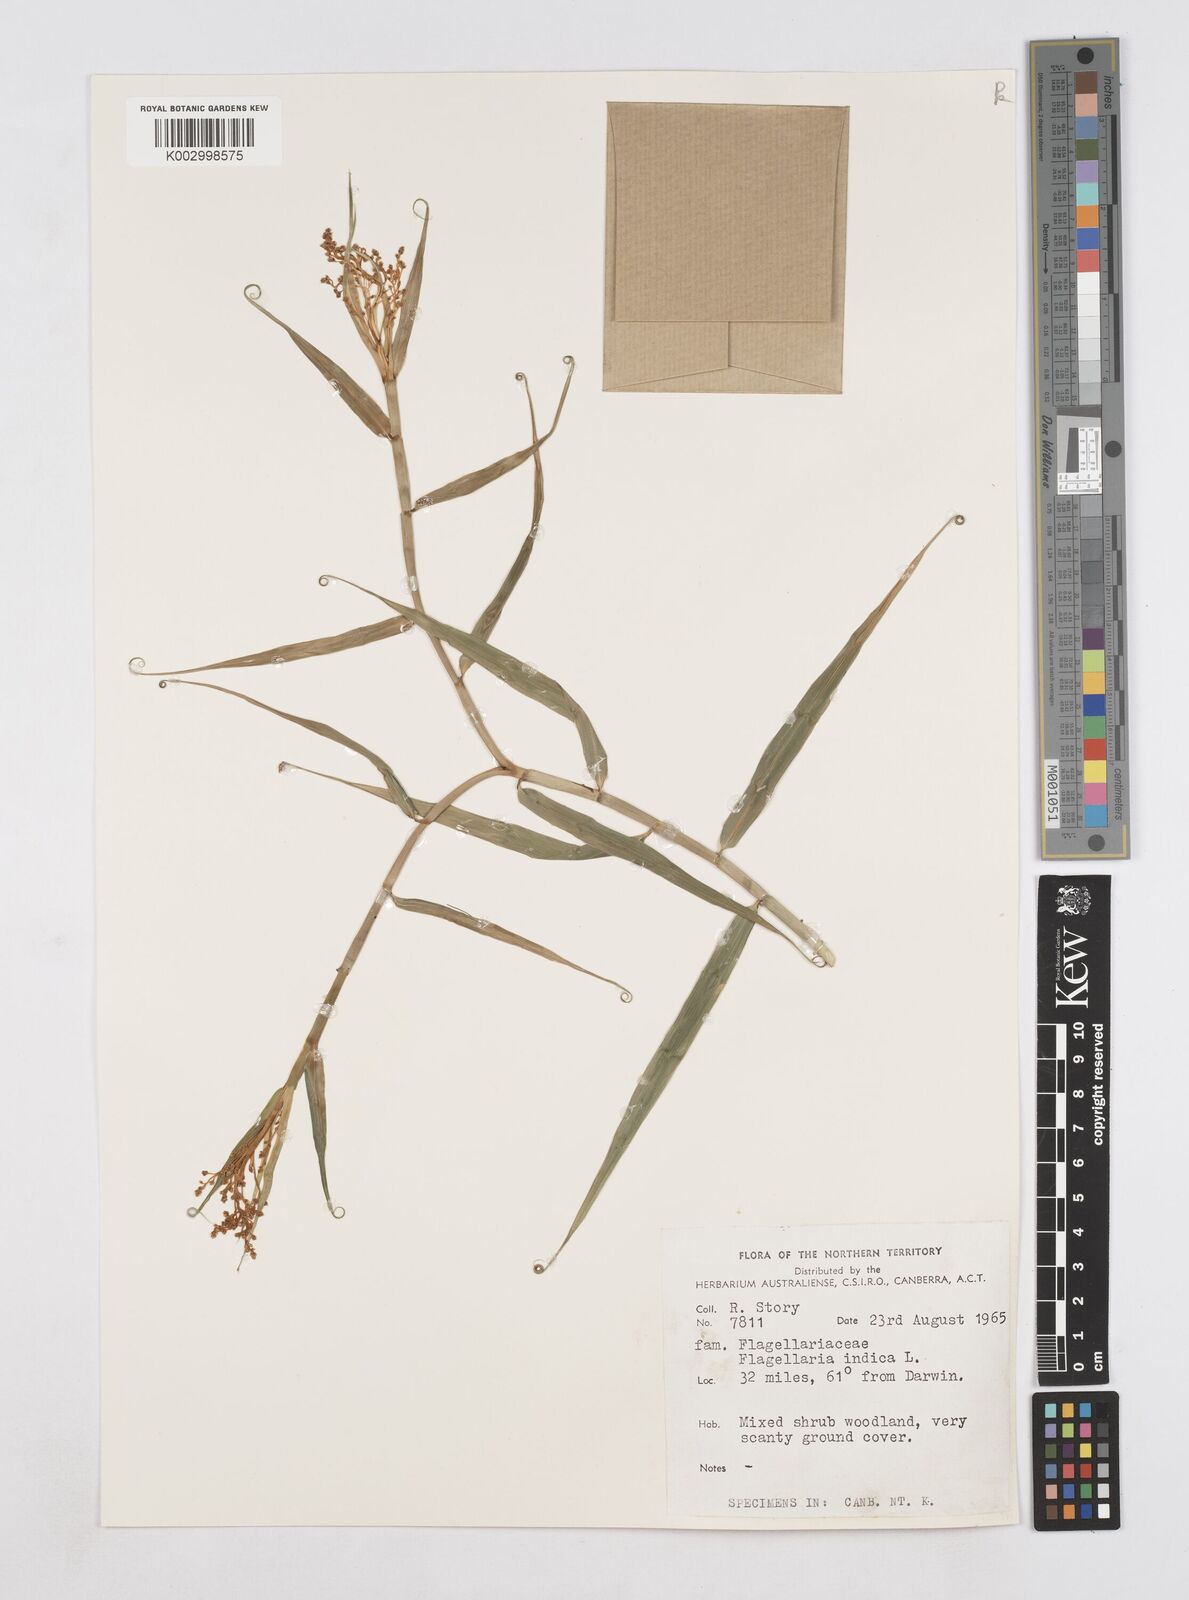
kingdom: Plantae
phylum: Tracheophyta
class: Liliopsida
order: Poales
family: Flagellariaceae
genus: Flagellaria
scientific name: Flagellaria indica
